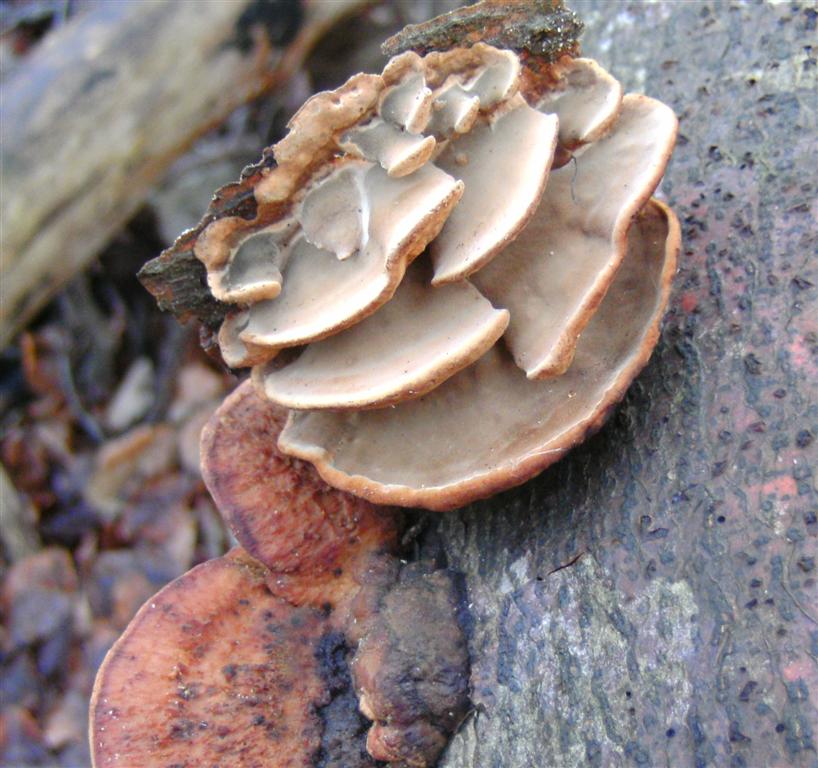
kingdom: Fungi
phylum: Basidiomycota
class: Agaricomycetes
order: Polyporales
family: Incrustoporiaceae
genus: Skeletocutis
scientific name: Skeletocutis nemoralis
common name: stor krystalporesvamp
